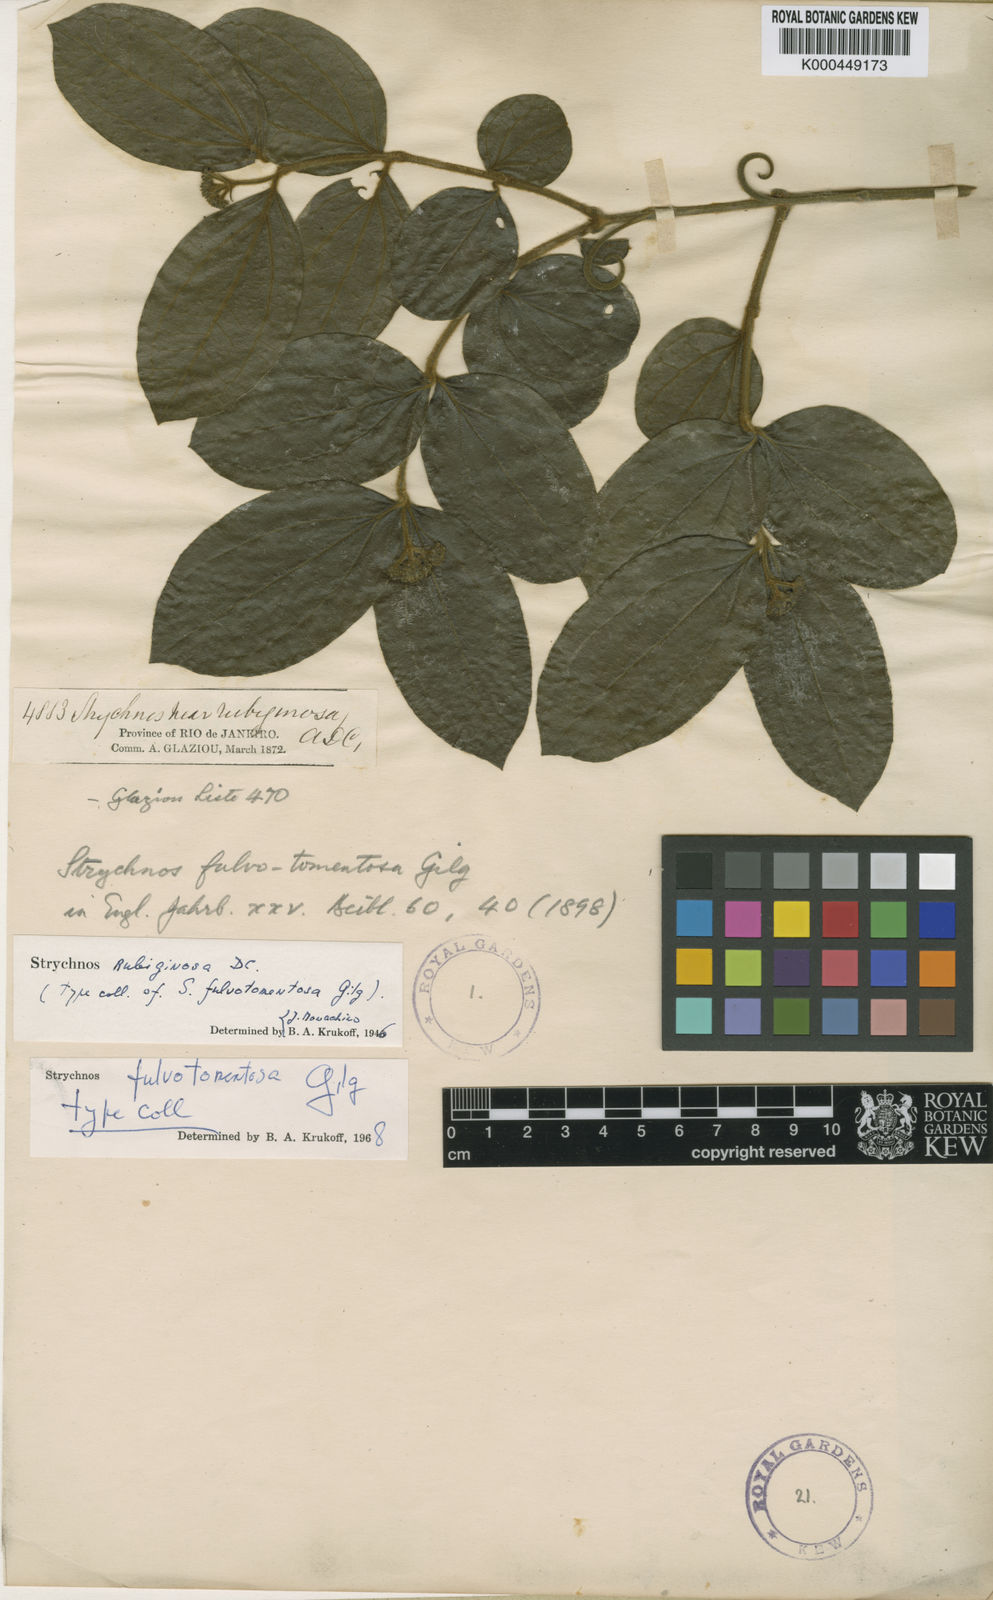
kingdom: Plantae
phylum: Tracheophyta
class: Magnoliopsida
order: Gentianales
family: Loganiaceae
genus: Strychnos
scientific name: Strychnos fulvotomentosa
